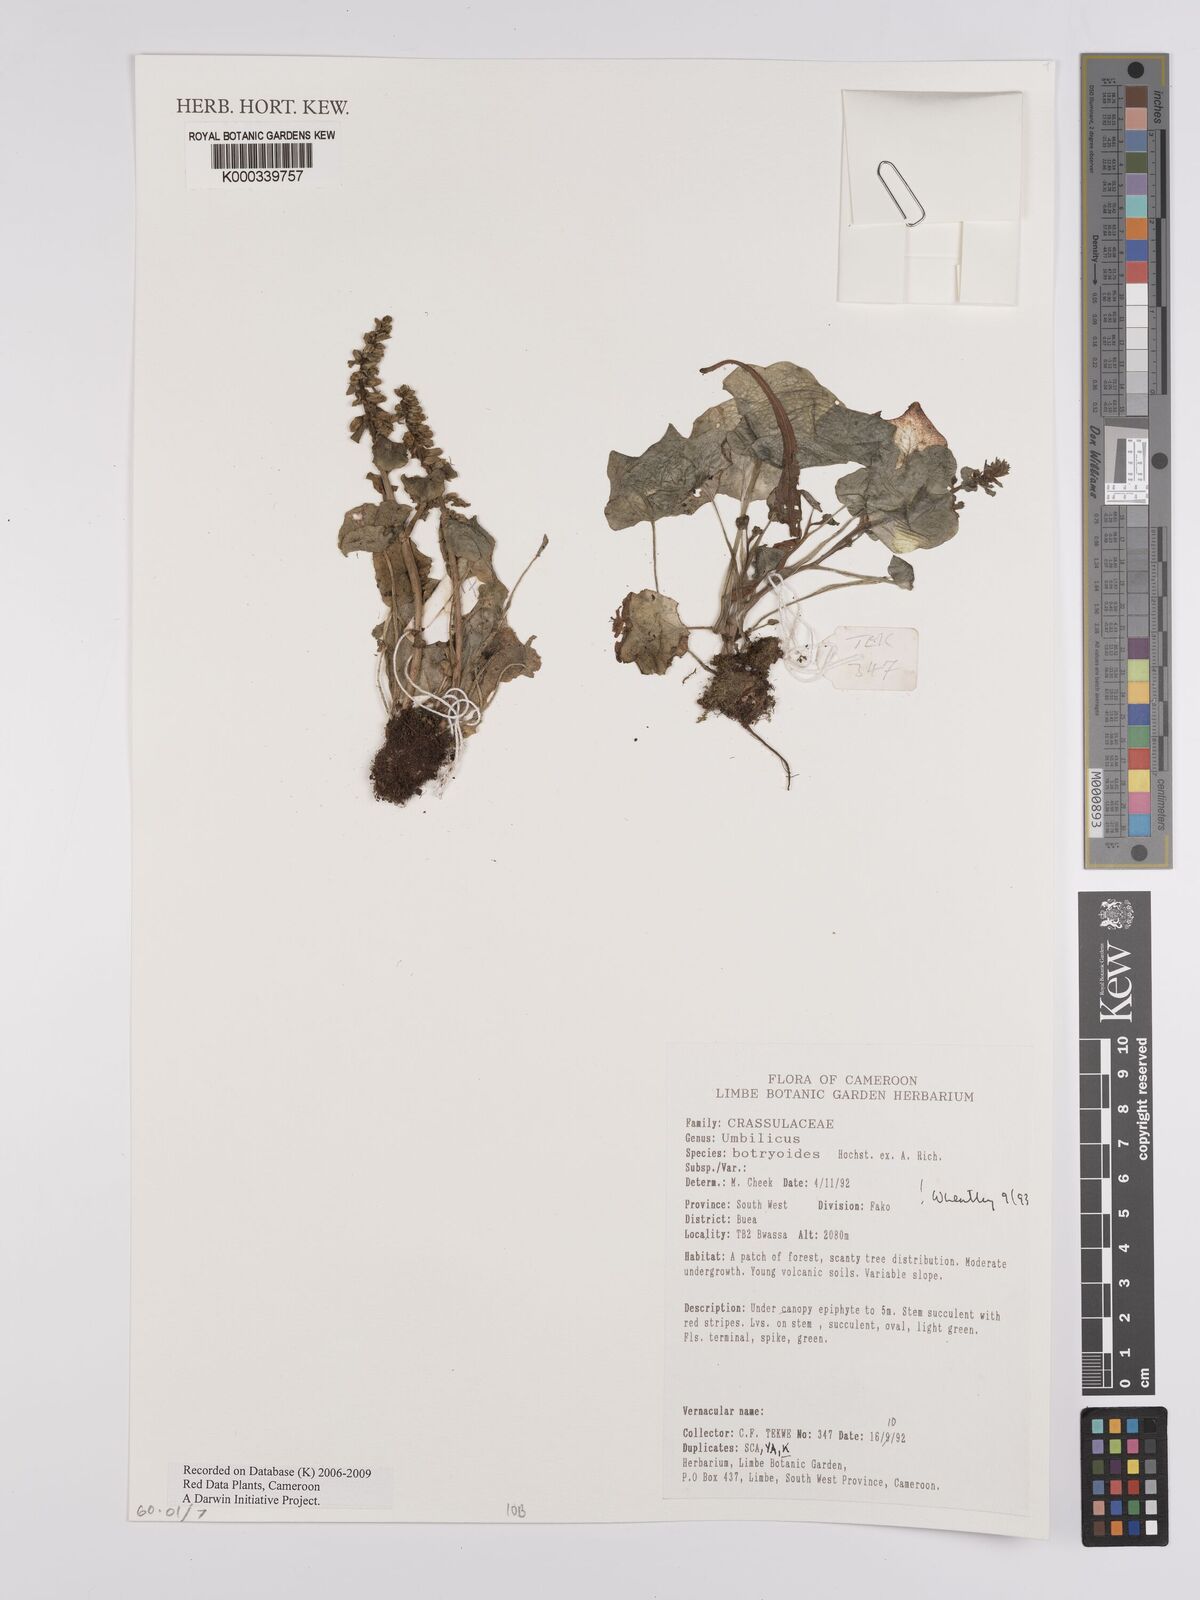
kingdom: Plantae
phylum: Tracheophyta
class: Magnoliopsida
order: Saxifragales
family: Crassulaceae
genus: Umbilicus
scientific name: Umbilicus botryoides
